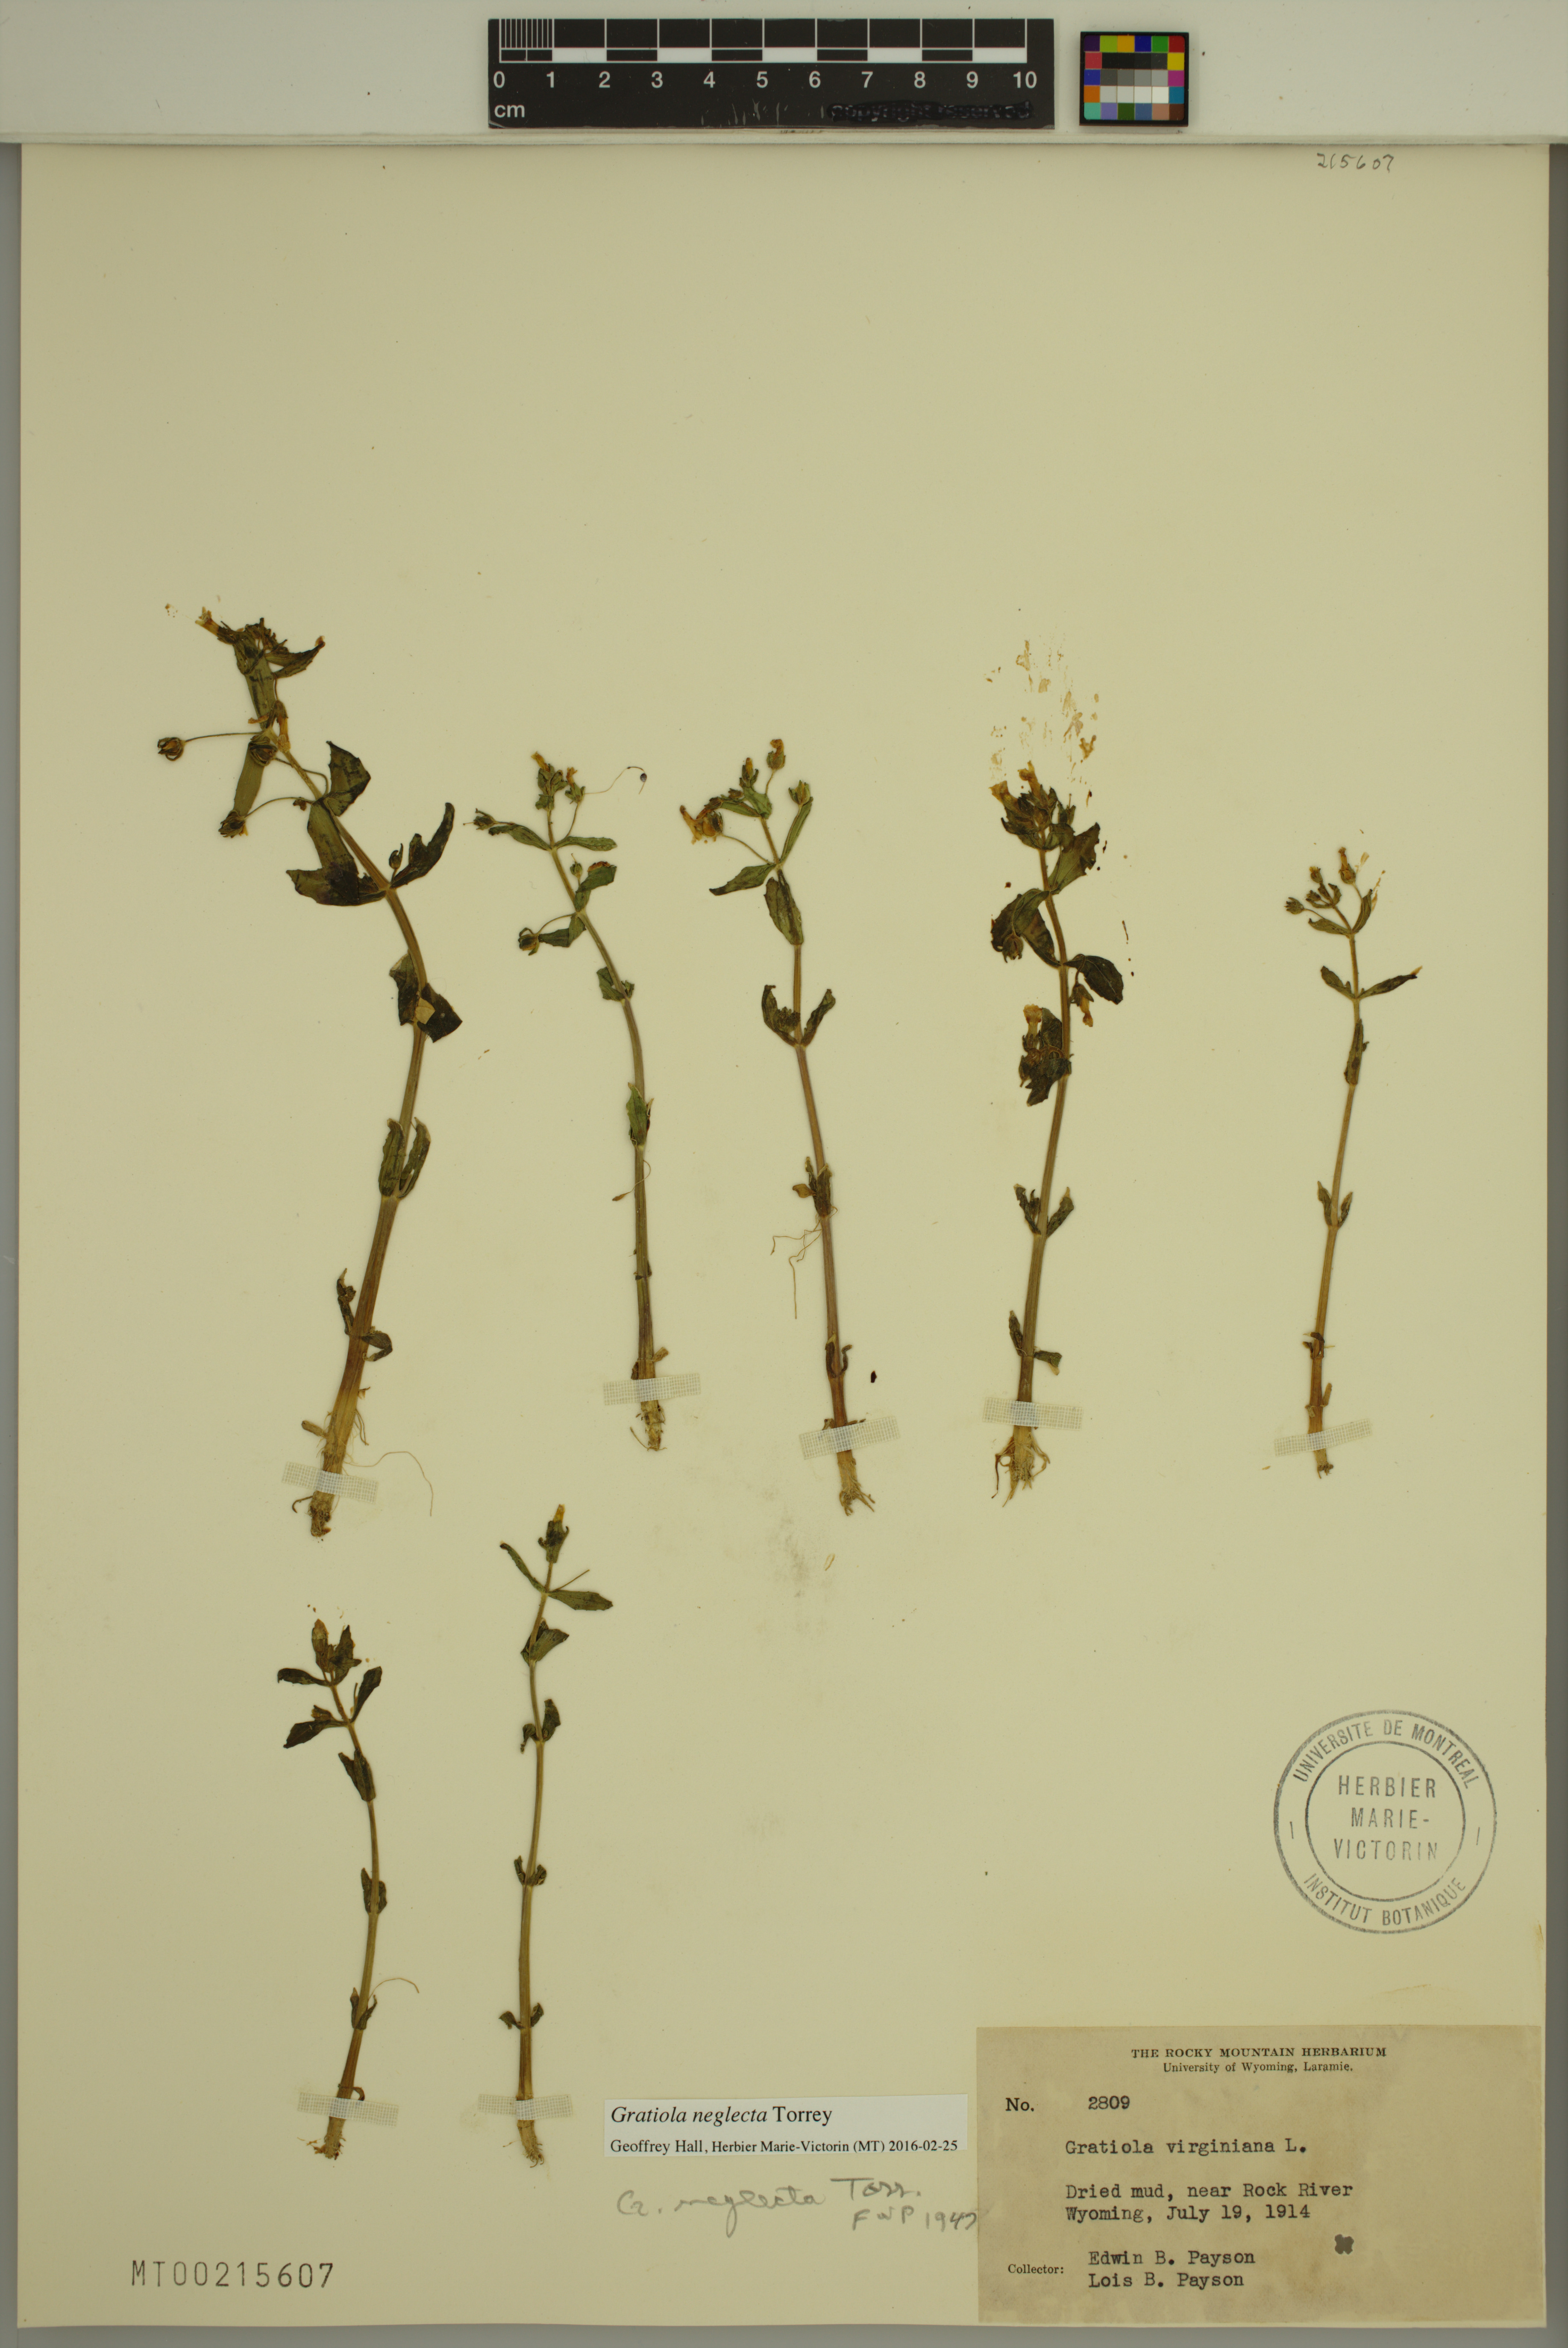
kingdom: Plantae
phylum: Tracheophyta
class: Magnoliopsida
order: Lamiales
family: Plantaginaceae
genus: Gratiola
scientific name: Gratiola neglecta
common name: American hedge-hyssop
